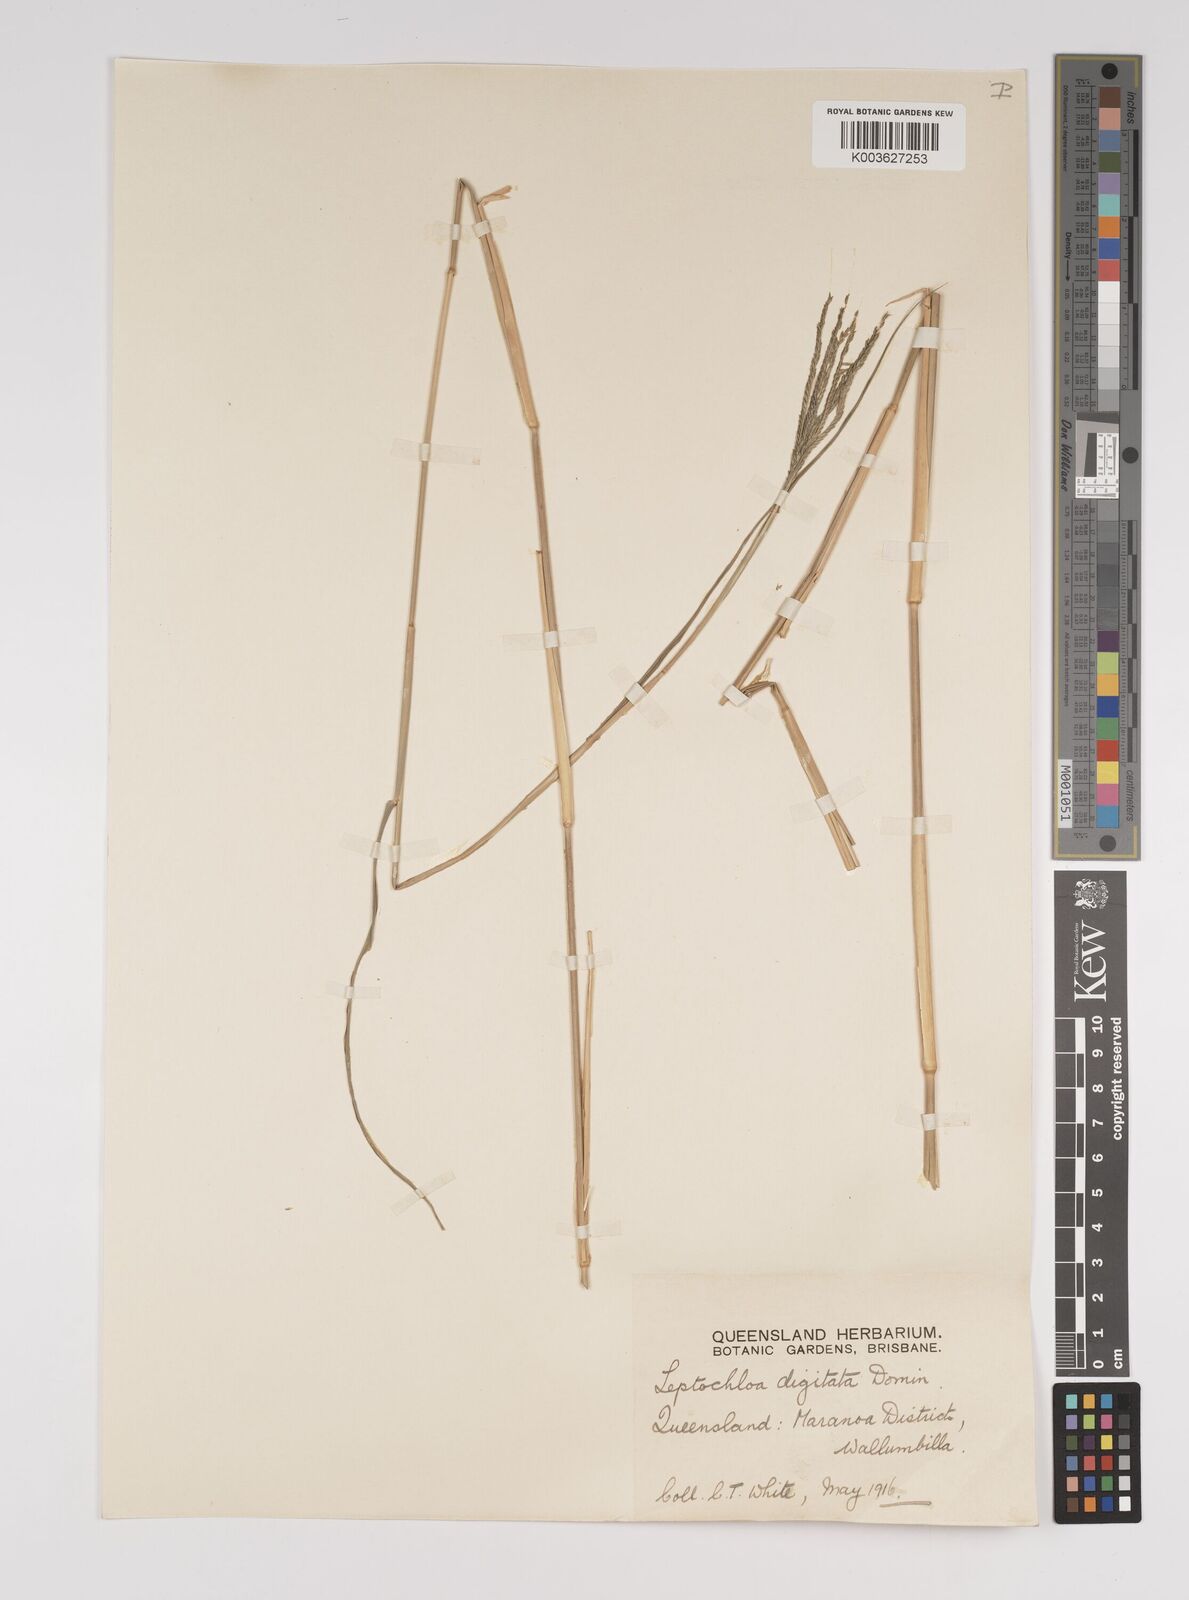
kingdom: Plantae
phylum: Tracheophyta
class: Liliopsida
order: Poales
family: Poaceae
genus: Leptochloa
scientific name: Leptochloa digitata
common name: Finger sprangletop
